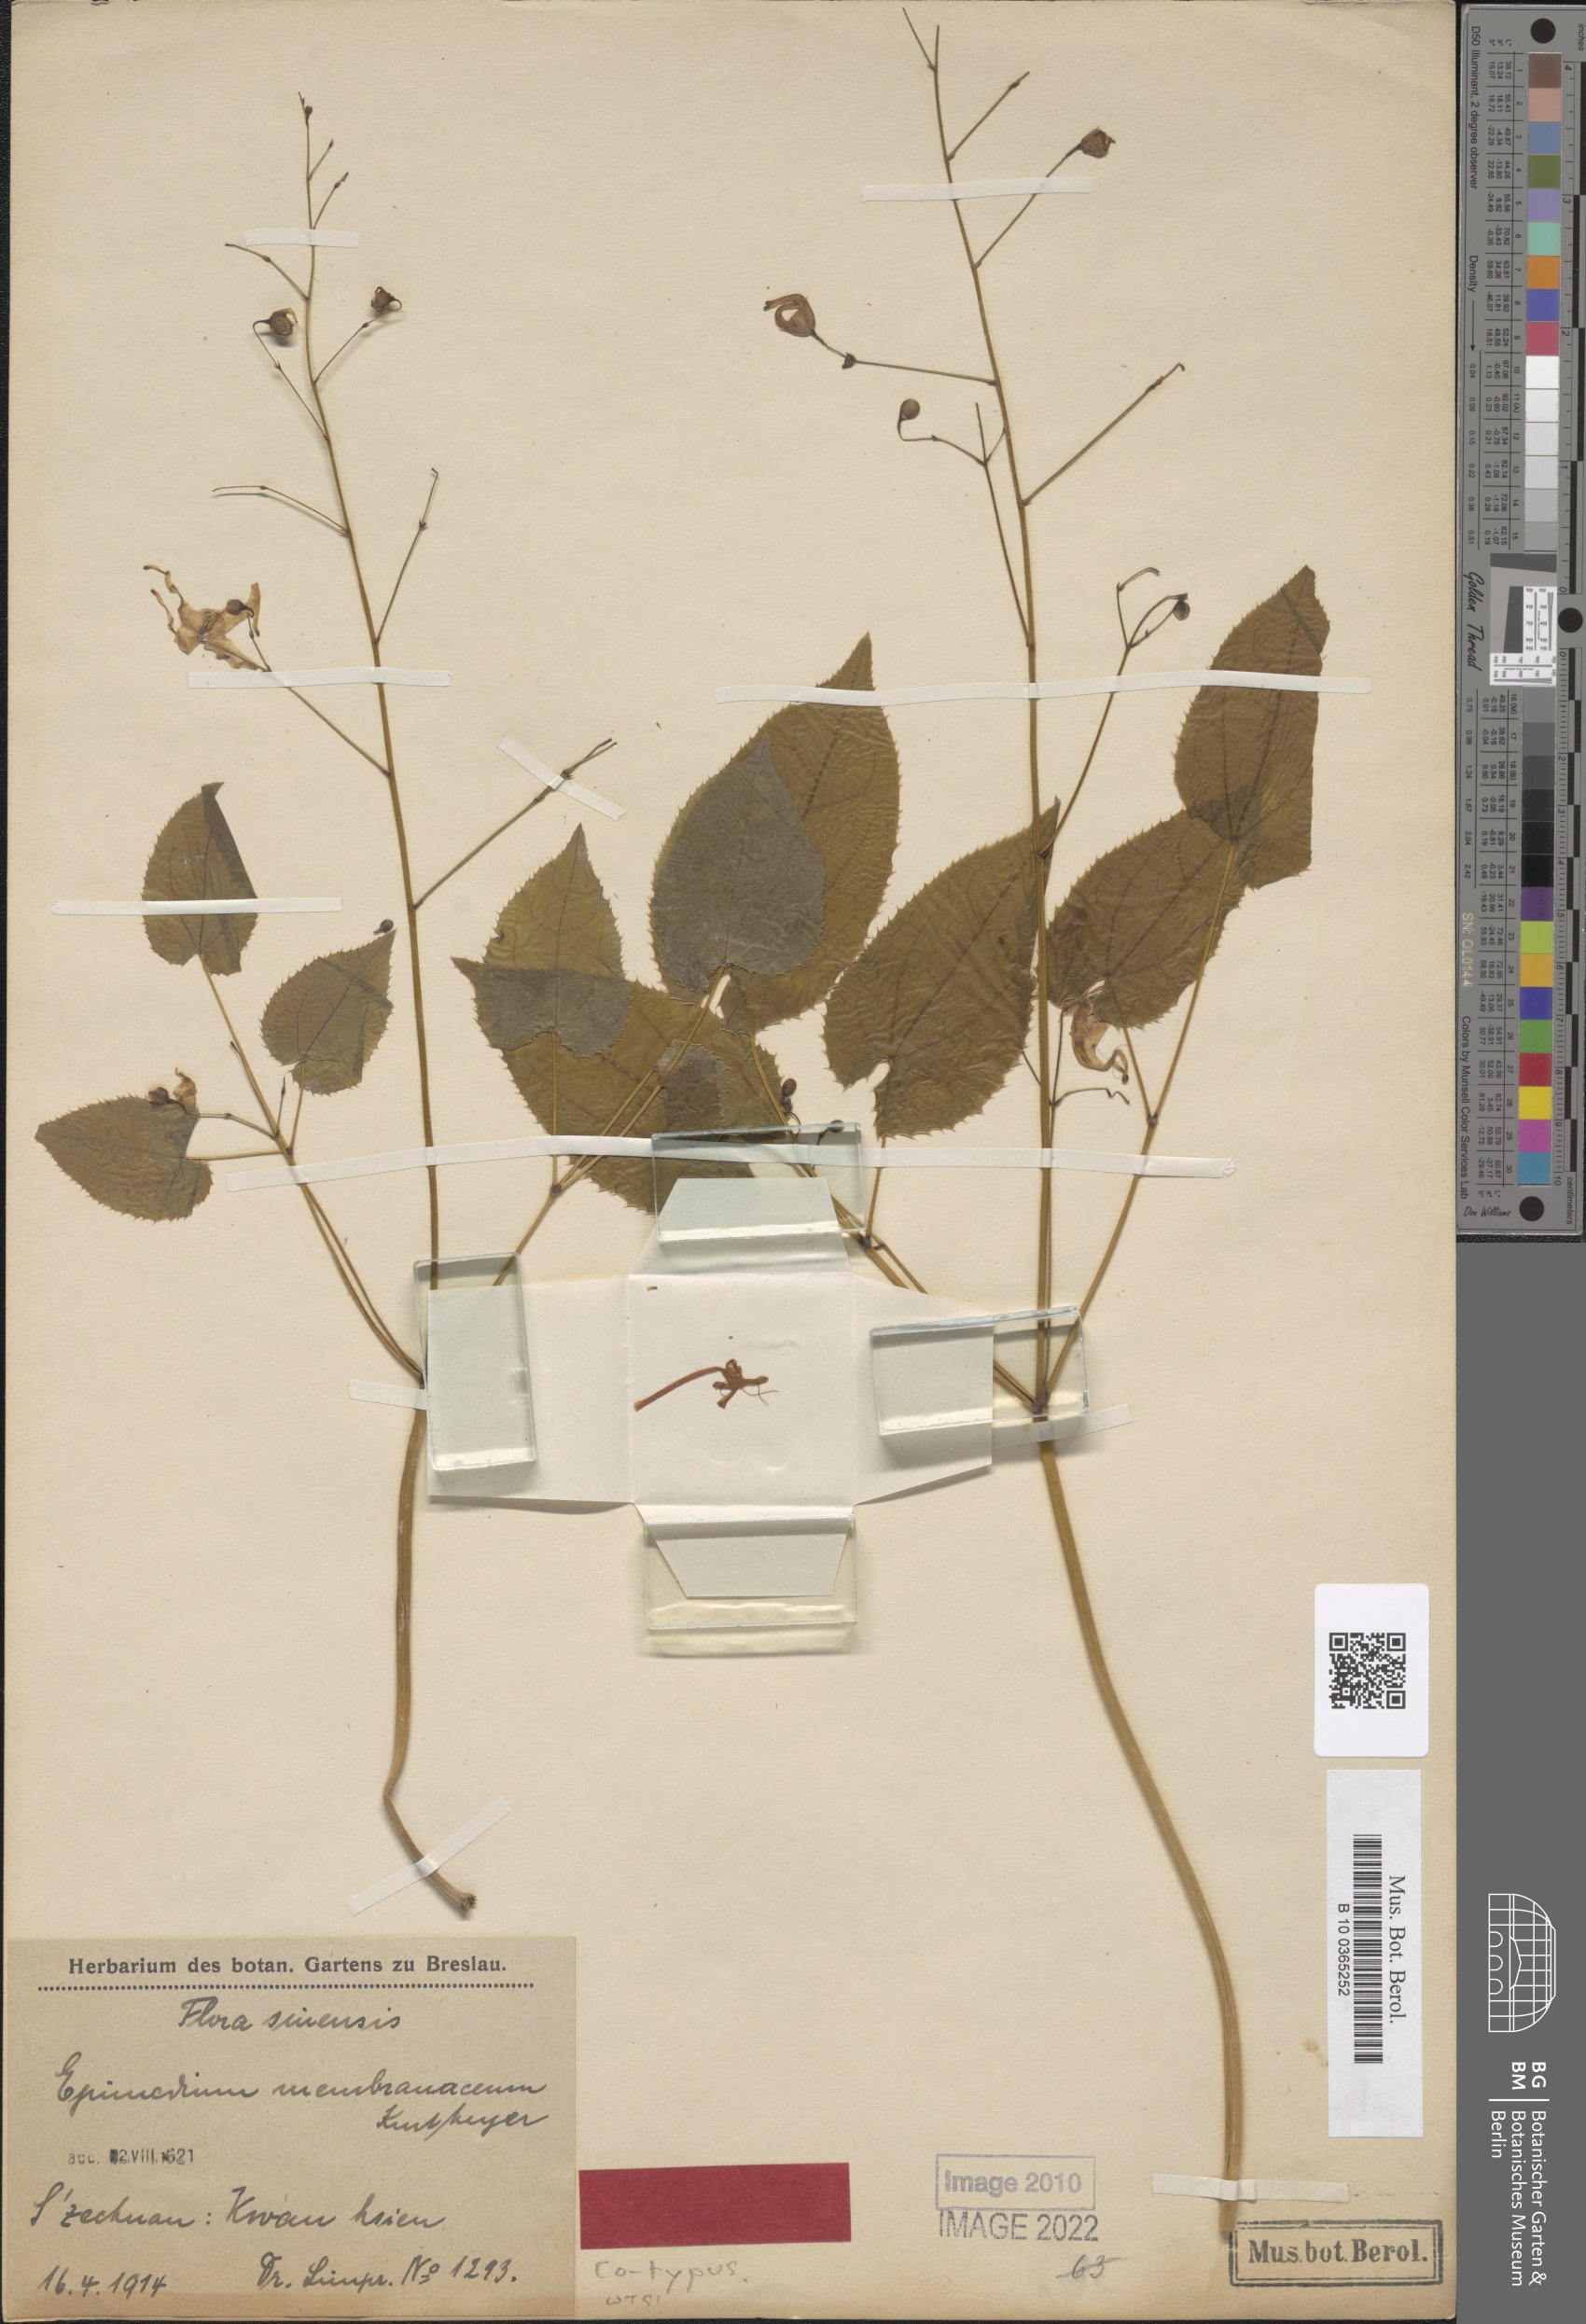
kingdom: Plantae
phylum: Tracheophyta
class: Magnoliopsida
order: Ranunculales
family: Berberidaceae
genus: Epimedium
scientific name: Epimedium davidii
